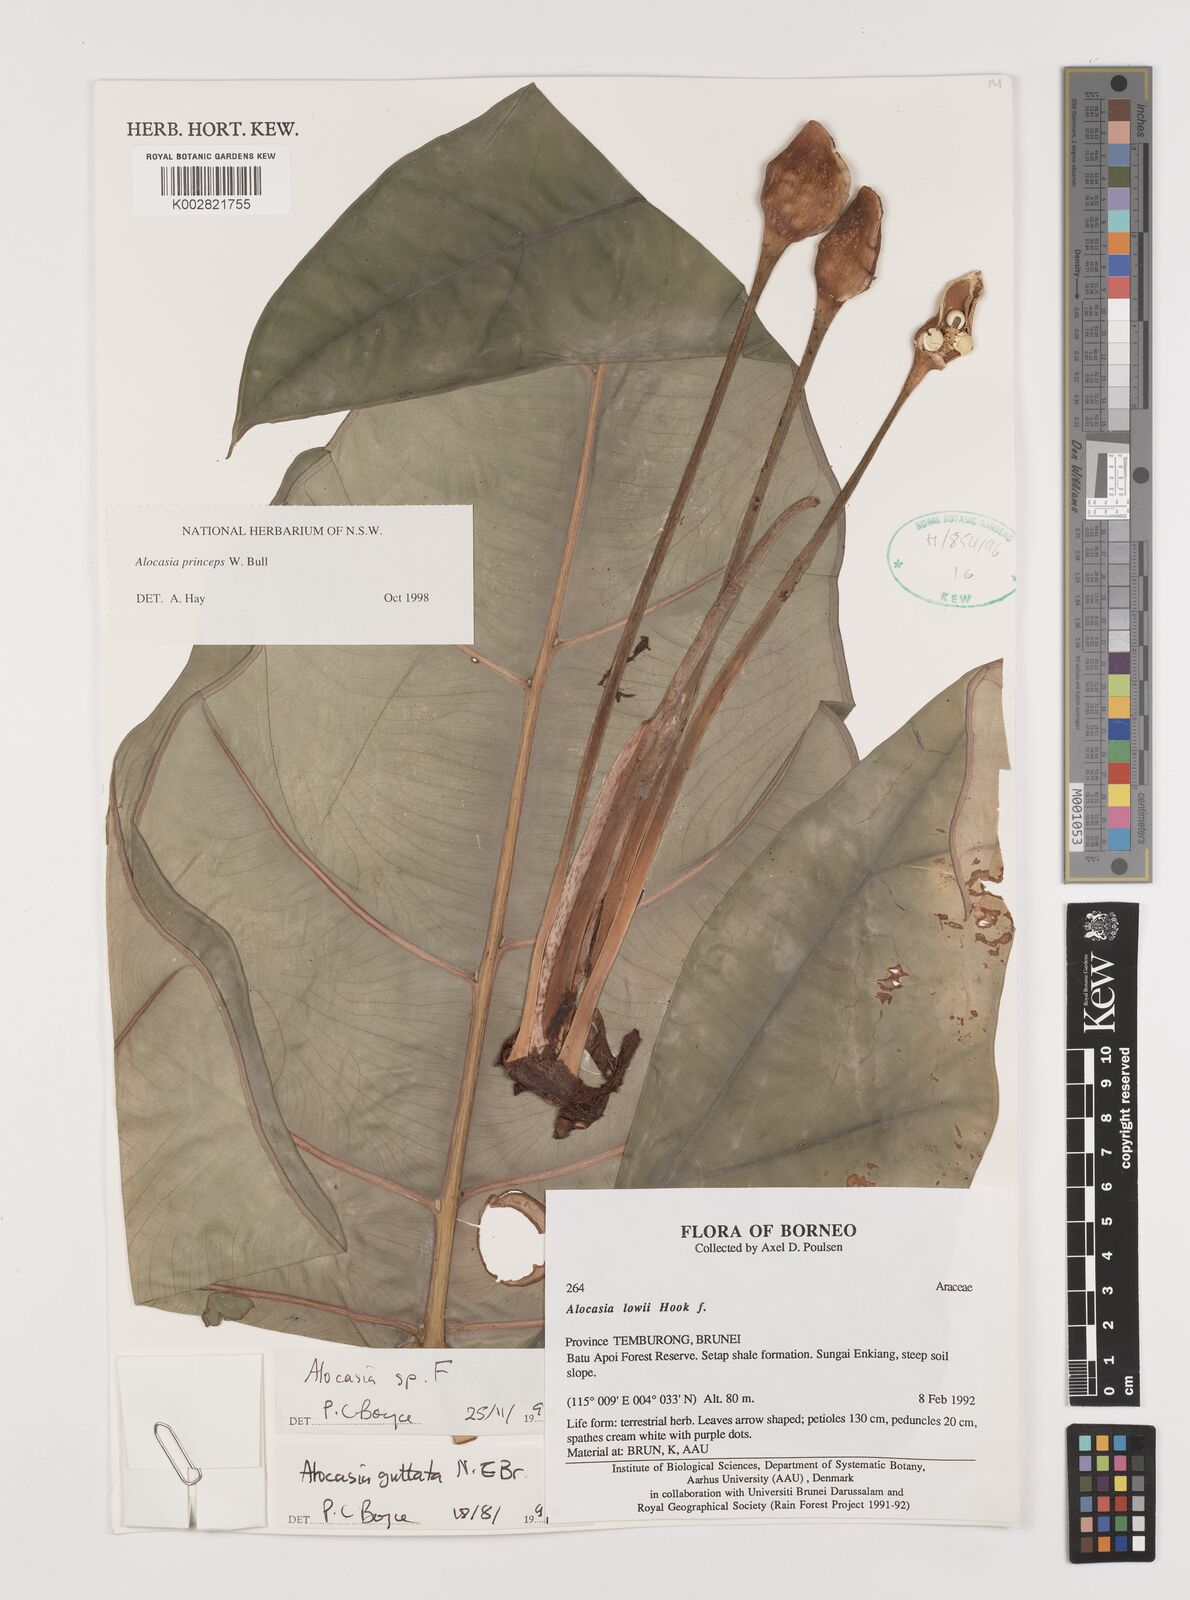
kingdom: Plantae
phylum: Tracheophyta
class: Liliopsida
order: Alismatales
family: Araceae
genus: Alocasia
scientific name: Alocasia princeps
